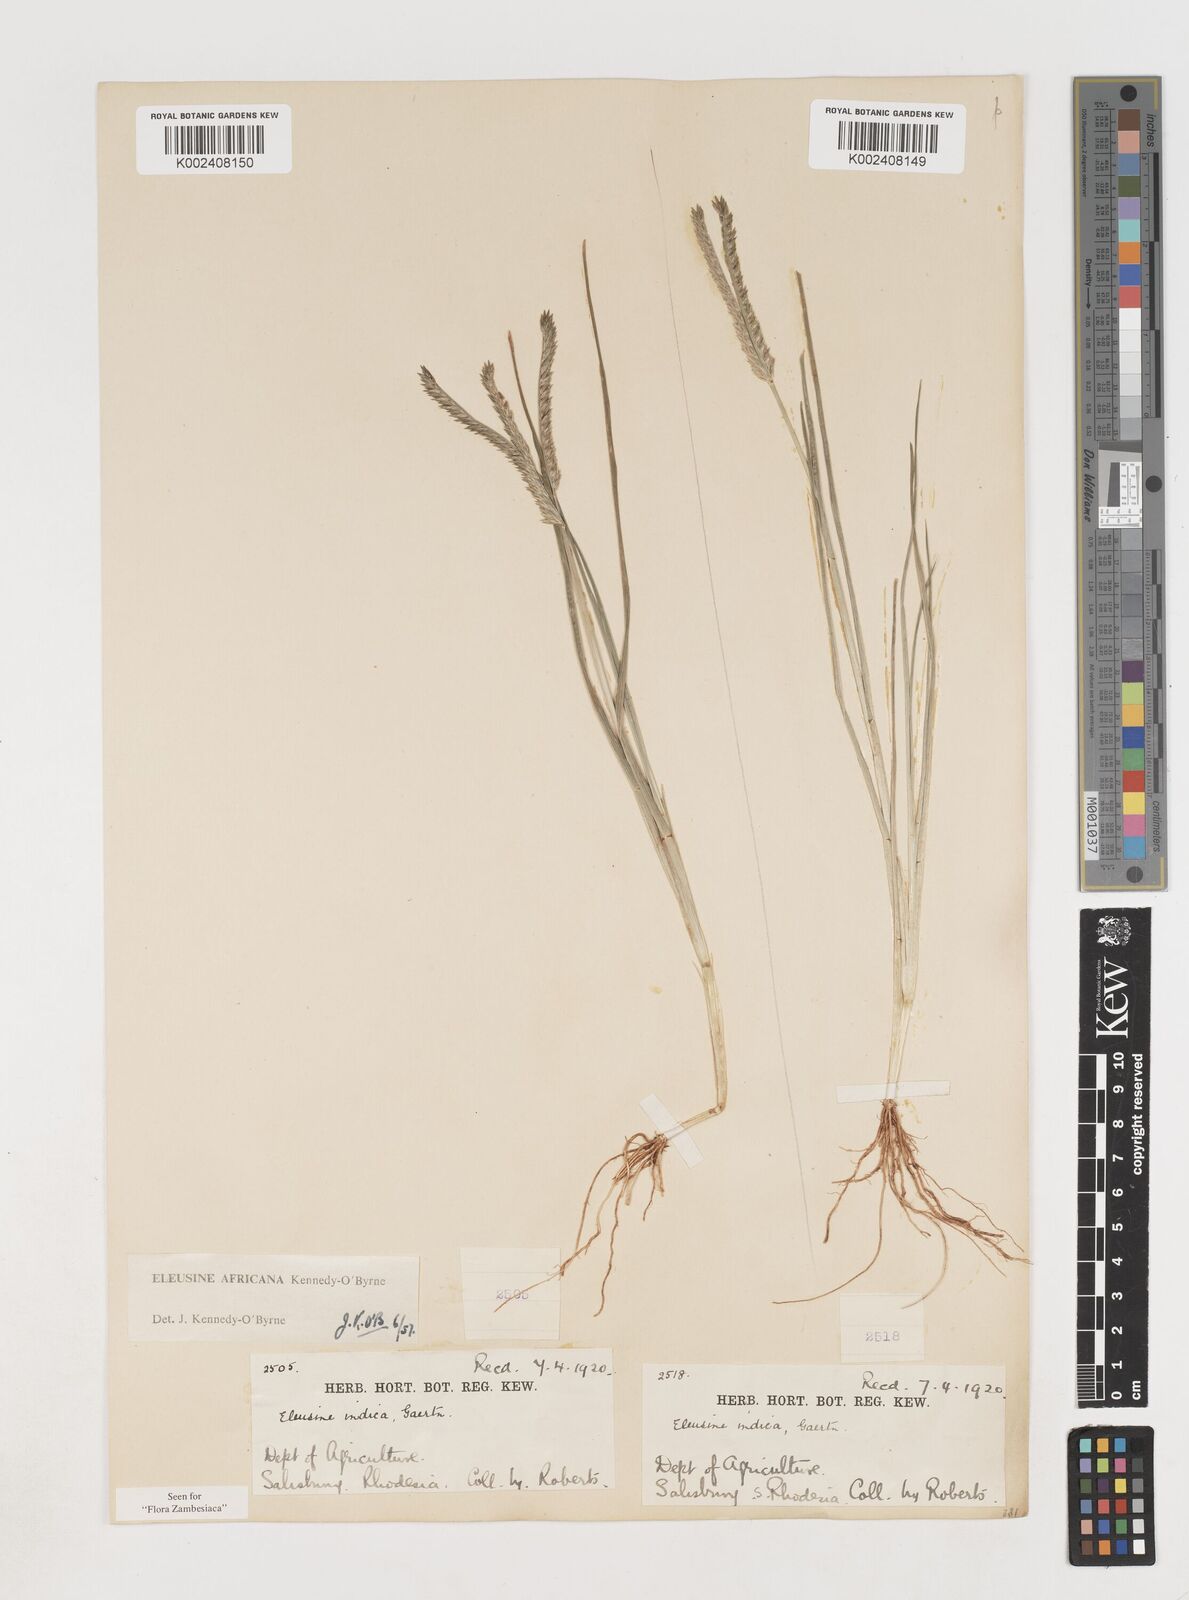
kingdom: Plantae
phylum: Tracheophyta
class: Liliopsida
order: Poales
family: Poaceae
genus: Eleusine
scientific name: Eleusine africana
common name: Wild african finger millet
